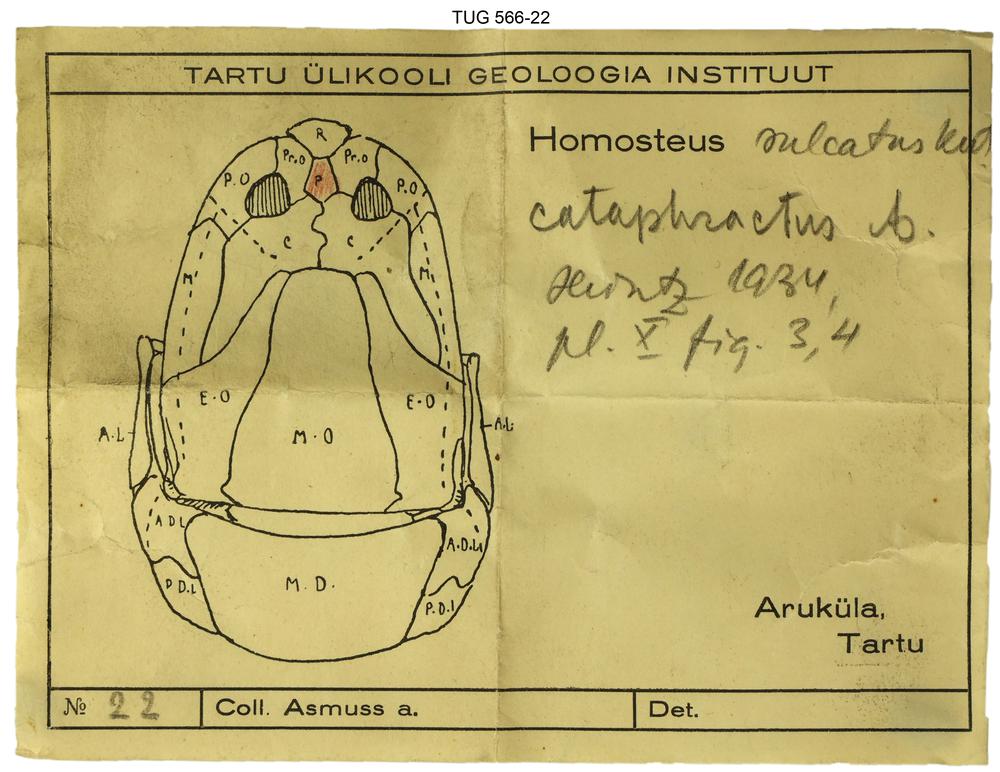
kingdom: Animalia
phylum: Chordata
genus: Homosteus
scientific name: Homosteus sulcatus
